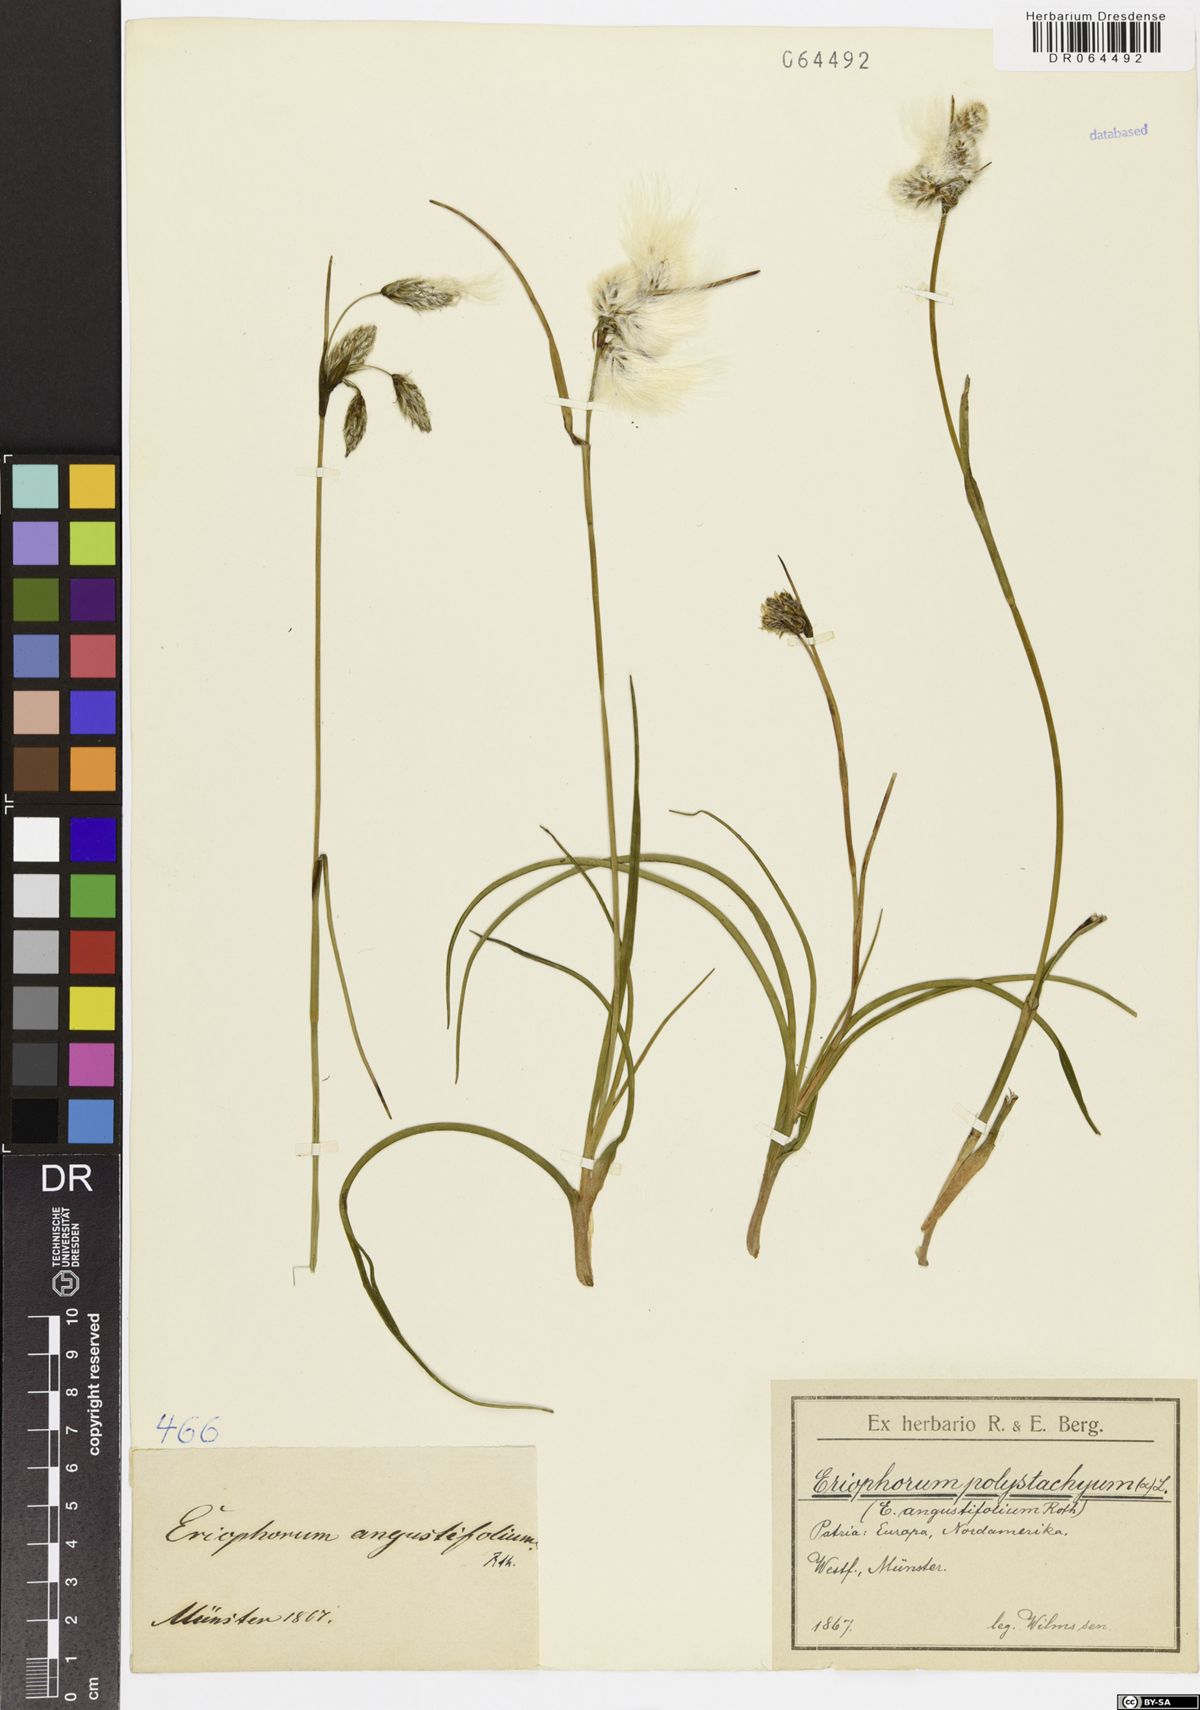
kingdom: Plantae
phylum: Tracheophyta
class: Liliopsida
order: Poales
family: Cyperaceae
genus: Eriophorum
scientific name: Eriophorum angustifolium
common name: Common cottongrass
